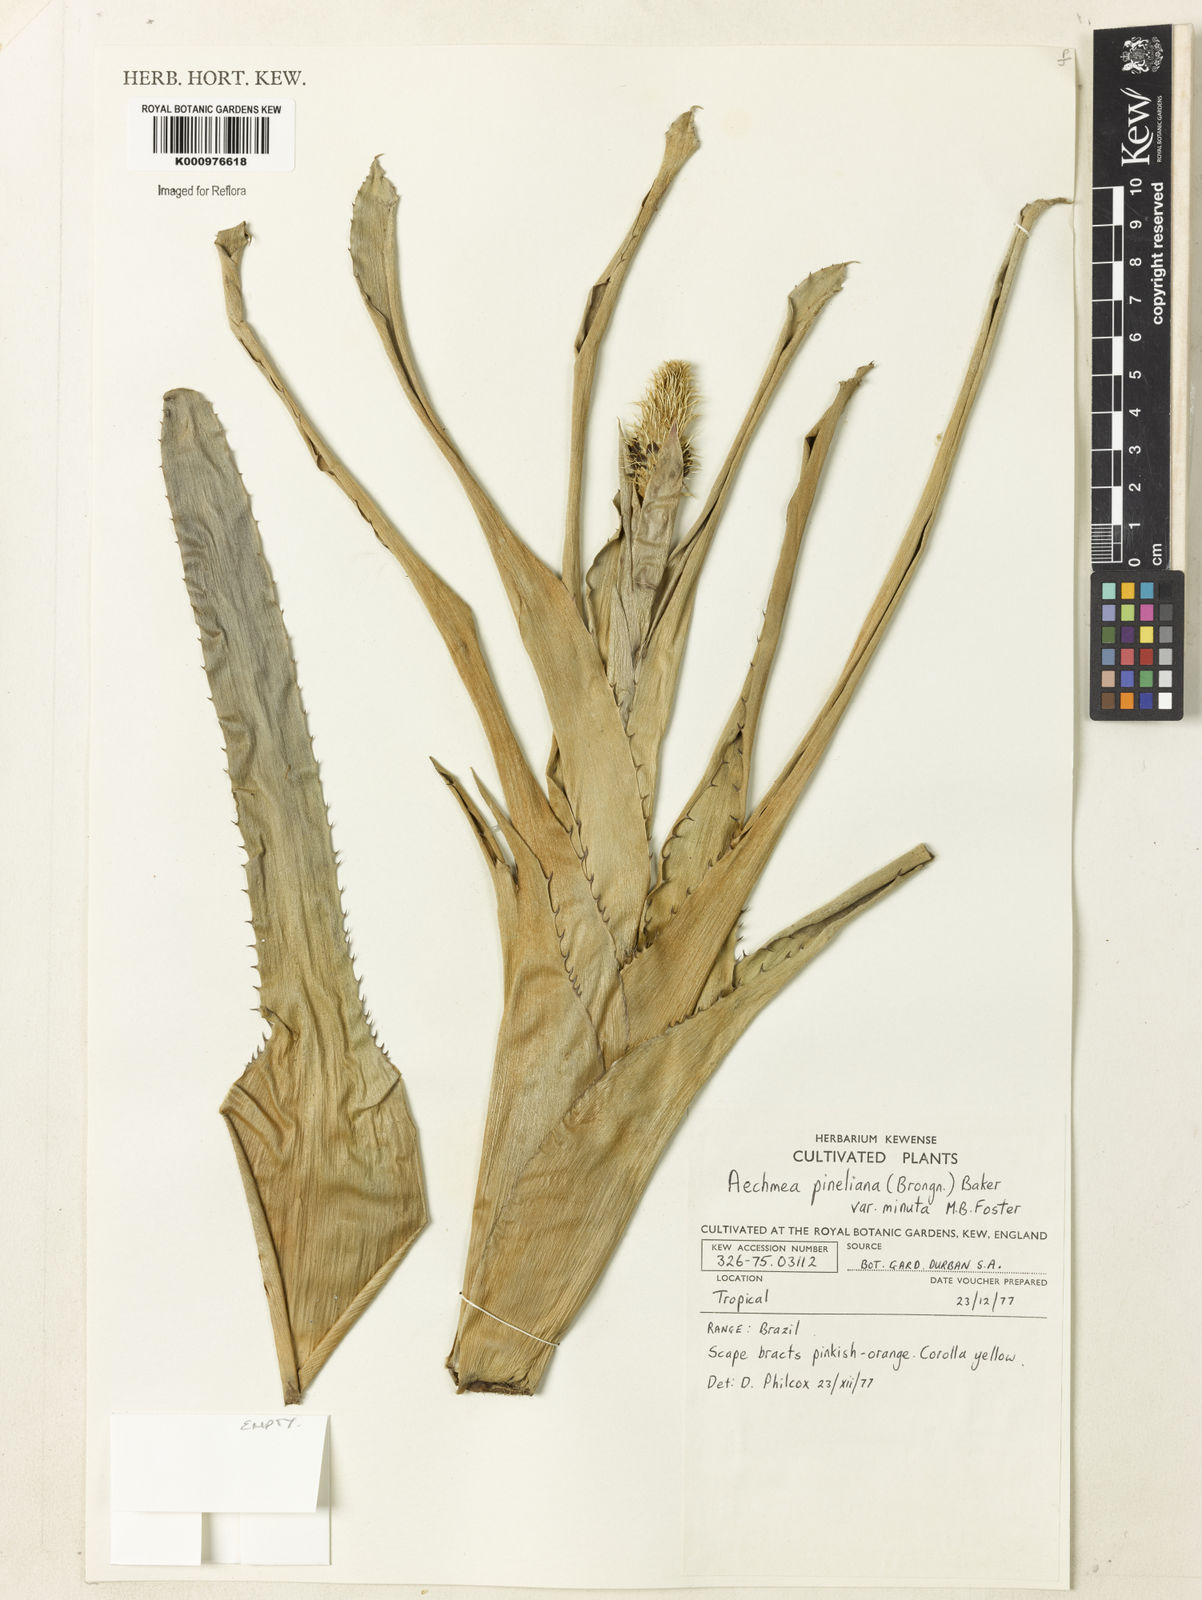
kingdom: Plantae
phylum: Tracheophyta
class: Liliopsida
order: Poales
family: Bromeliaceae
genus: Aechmea
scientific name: Aechmea triticina
